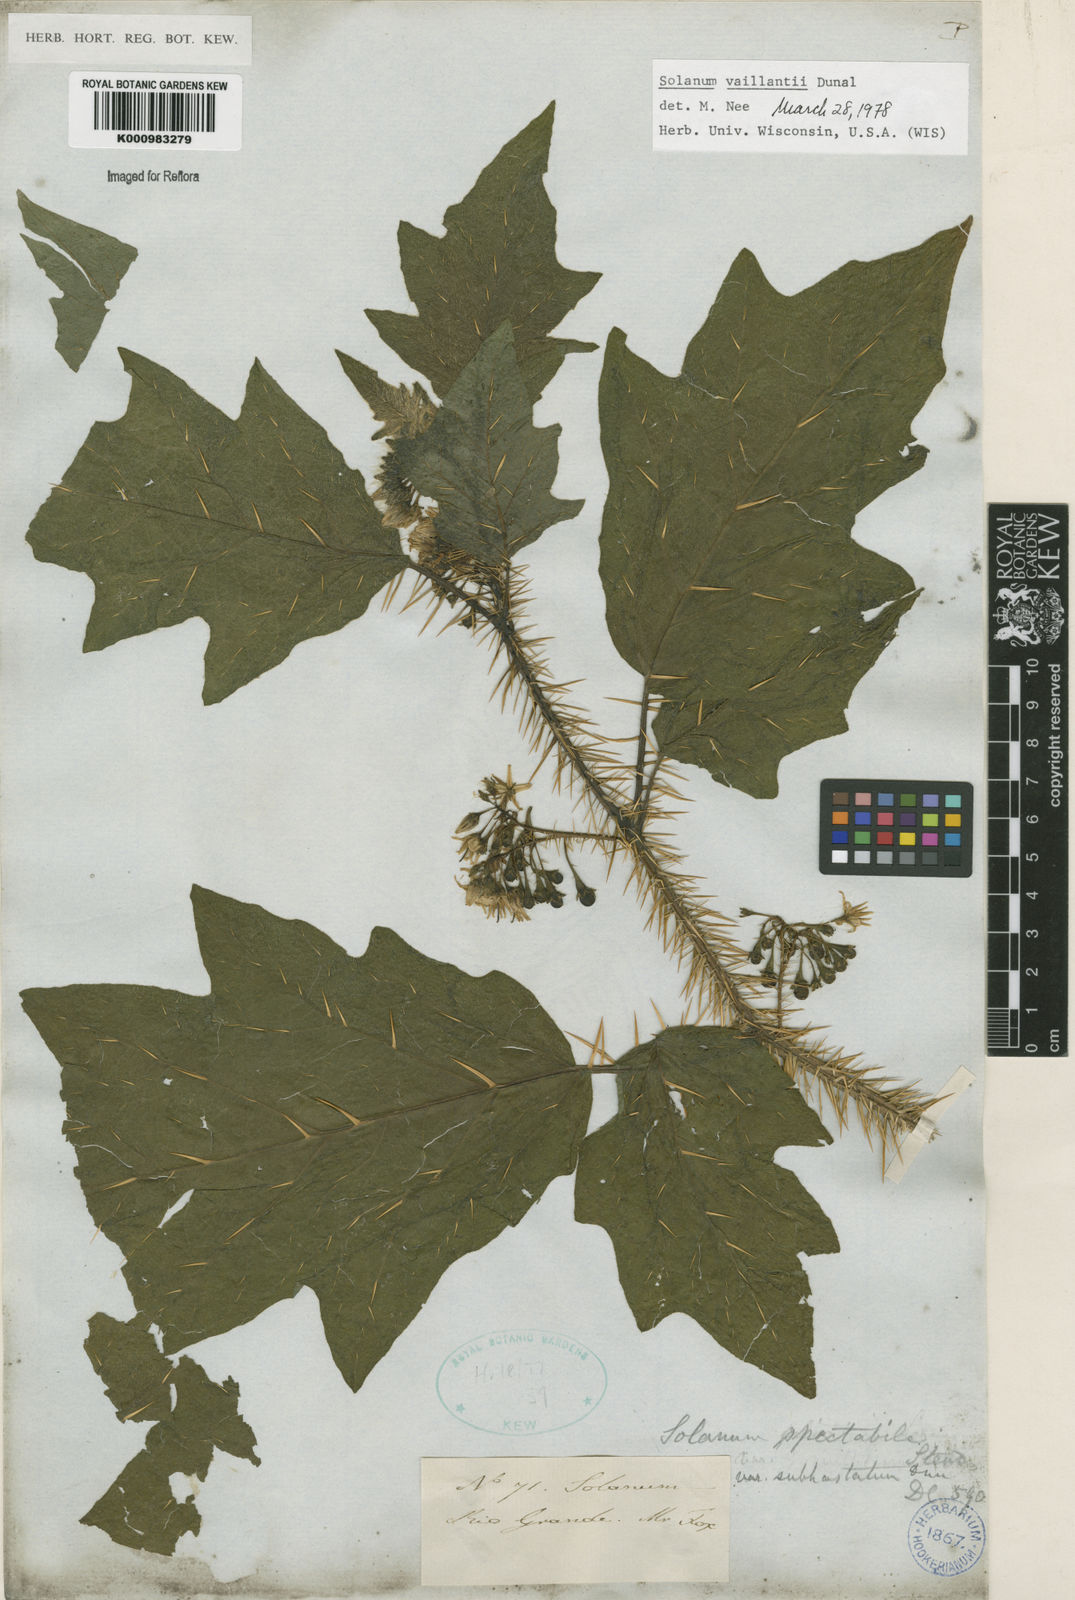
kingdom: Plantae
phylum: Tracheophyta
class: Magnoliopsida
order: Solanales
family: Solanaceae
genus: Solanum
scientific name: Solanum vaillantii
